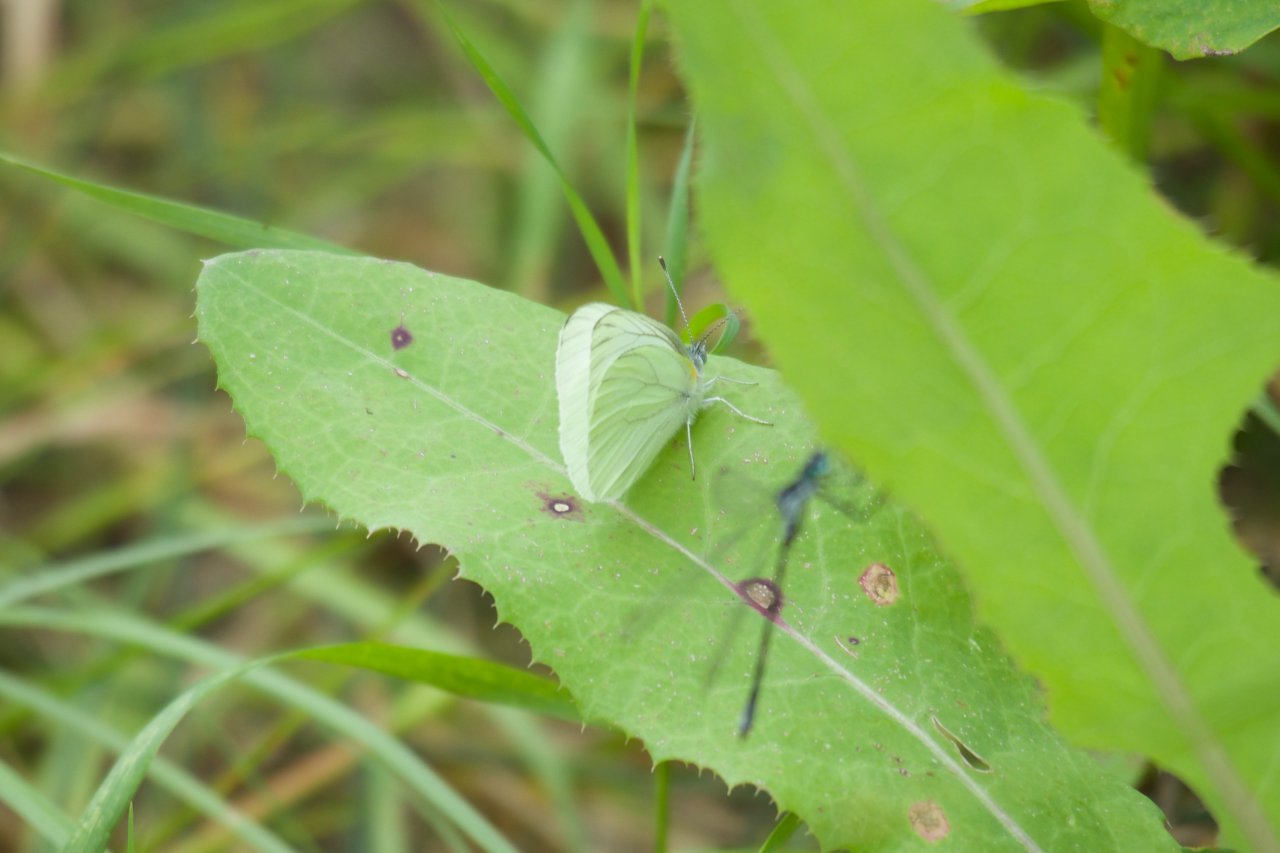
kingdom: Animalia
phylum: Arthropoda
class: Insecta
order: Lepidoptera
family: Pieridae
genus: Pieris
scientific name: Pieris oleracea
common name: Mustard White
